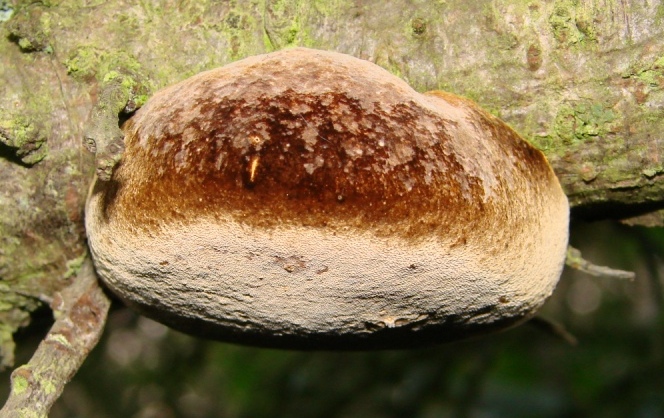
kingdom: Fungi
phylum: Basidiomycota
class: Agaricomycetes
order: Hymenochaetales
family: Hymenochaetaceae
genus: Fomitiporia
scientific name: Fomitiporia hippophaeicola
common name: havtorn-ildporesvamp
